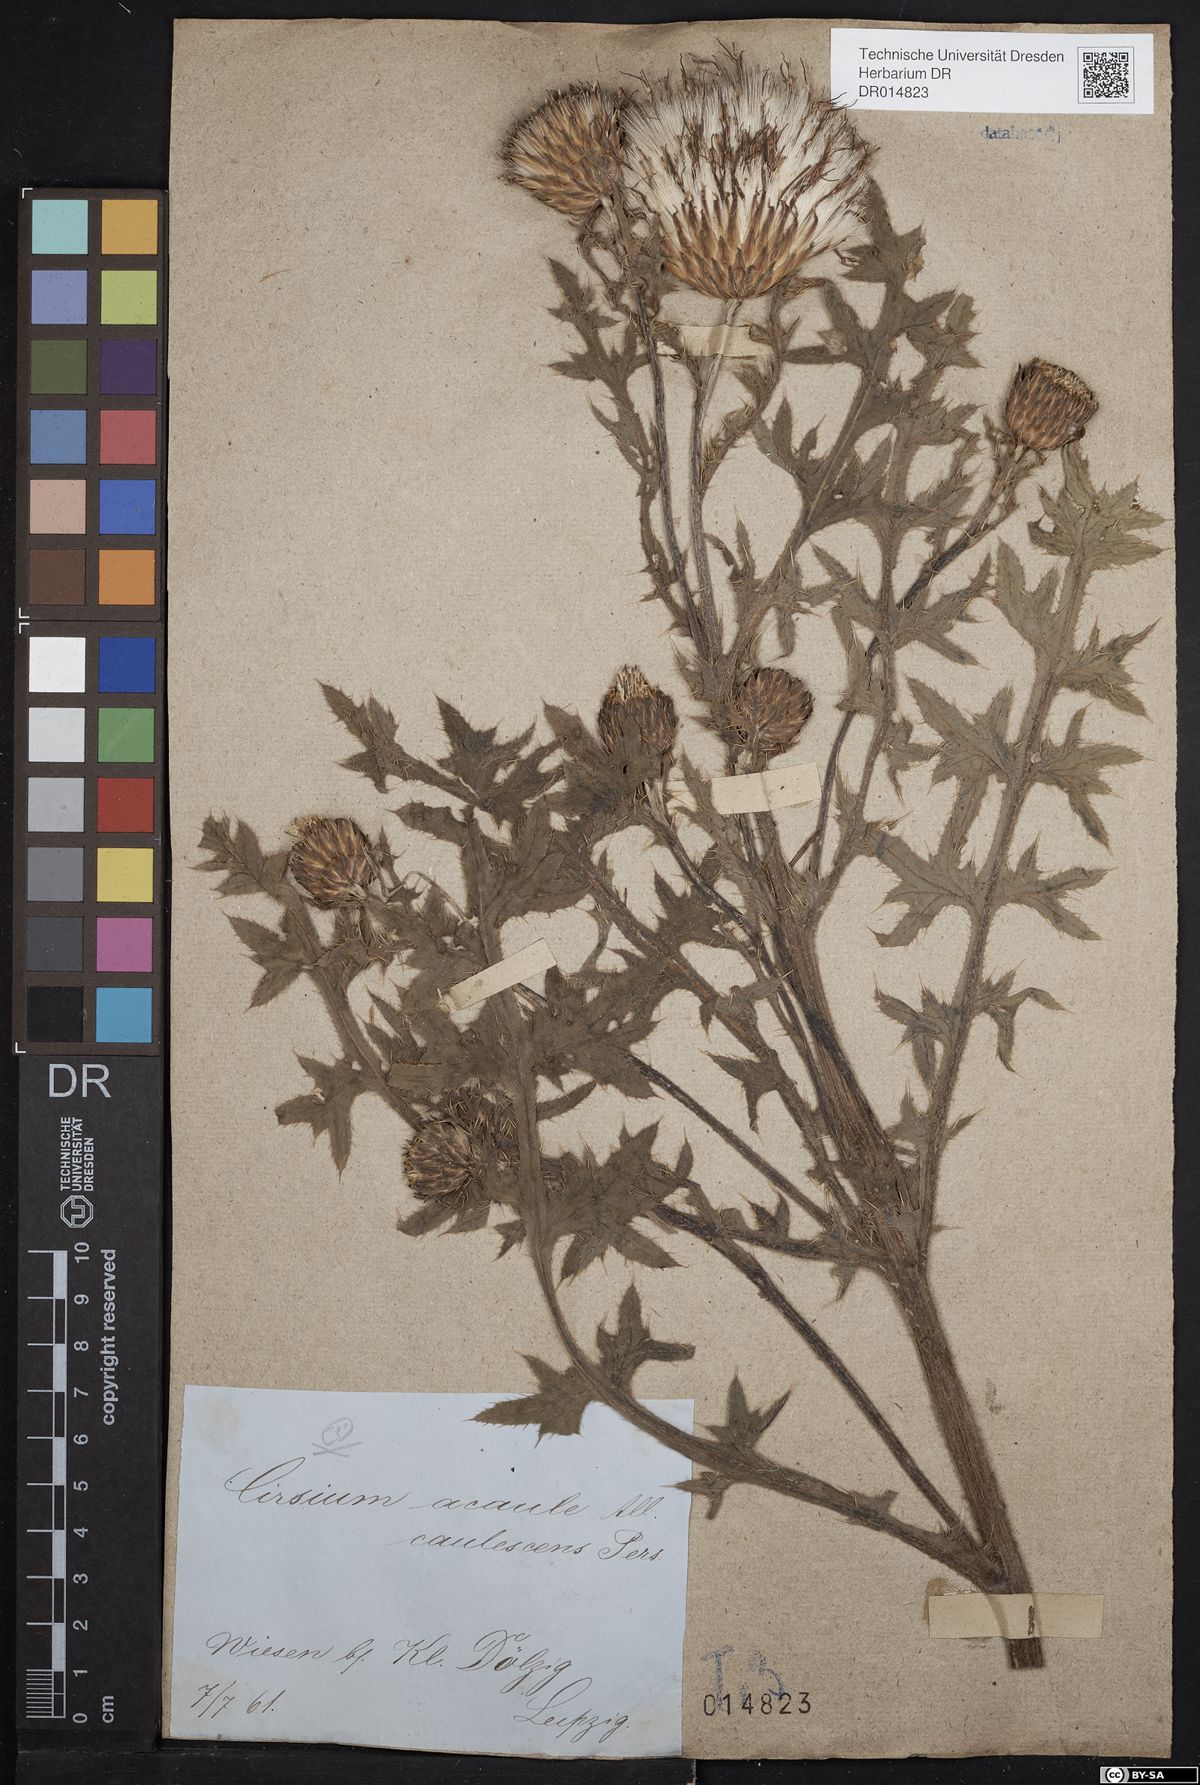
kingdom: Plantae
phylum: Tracheophyta
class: Magnoliopsida
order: Asterales
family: Asteraceae
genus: Cirsium
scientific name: Cirsium acaulon
